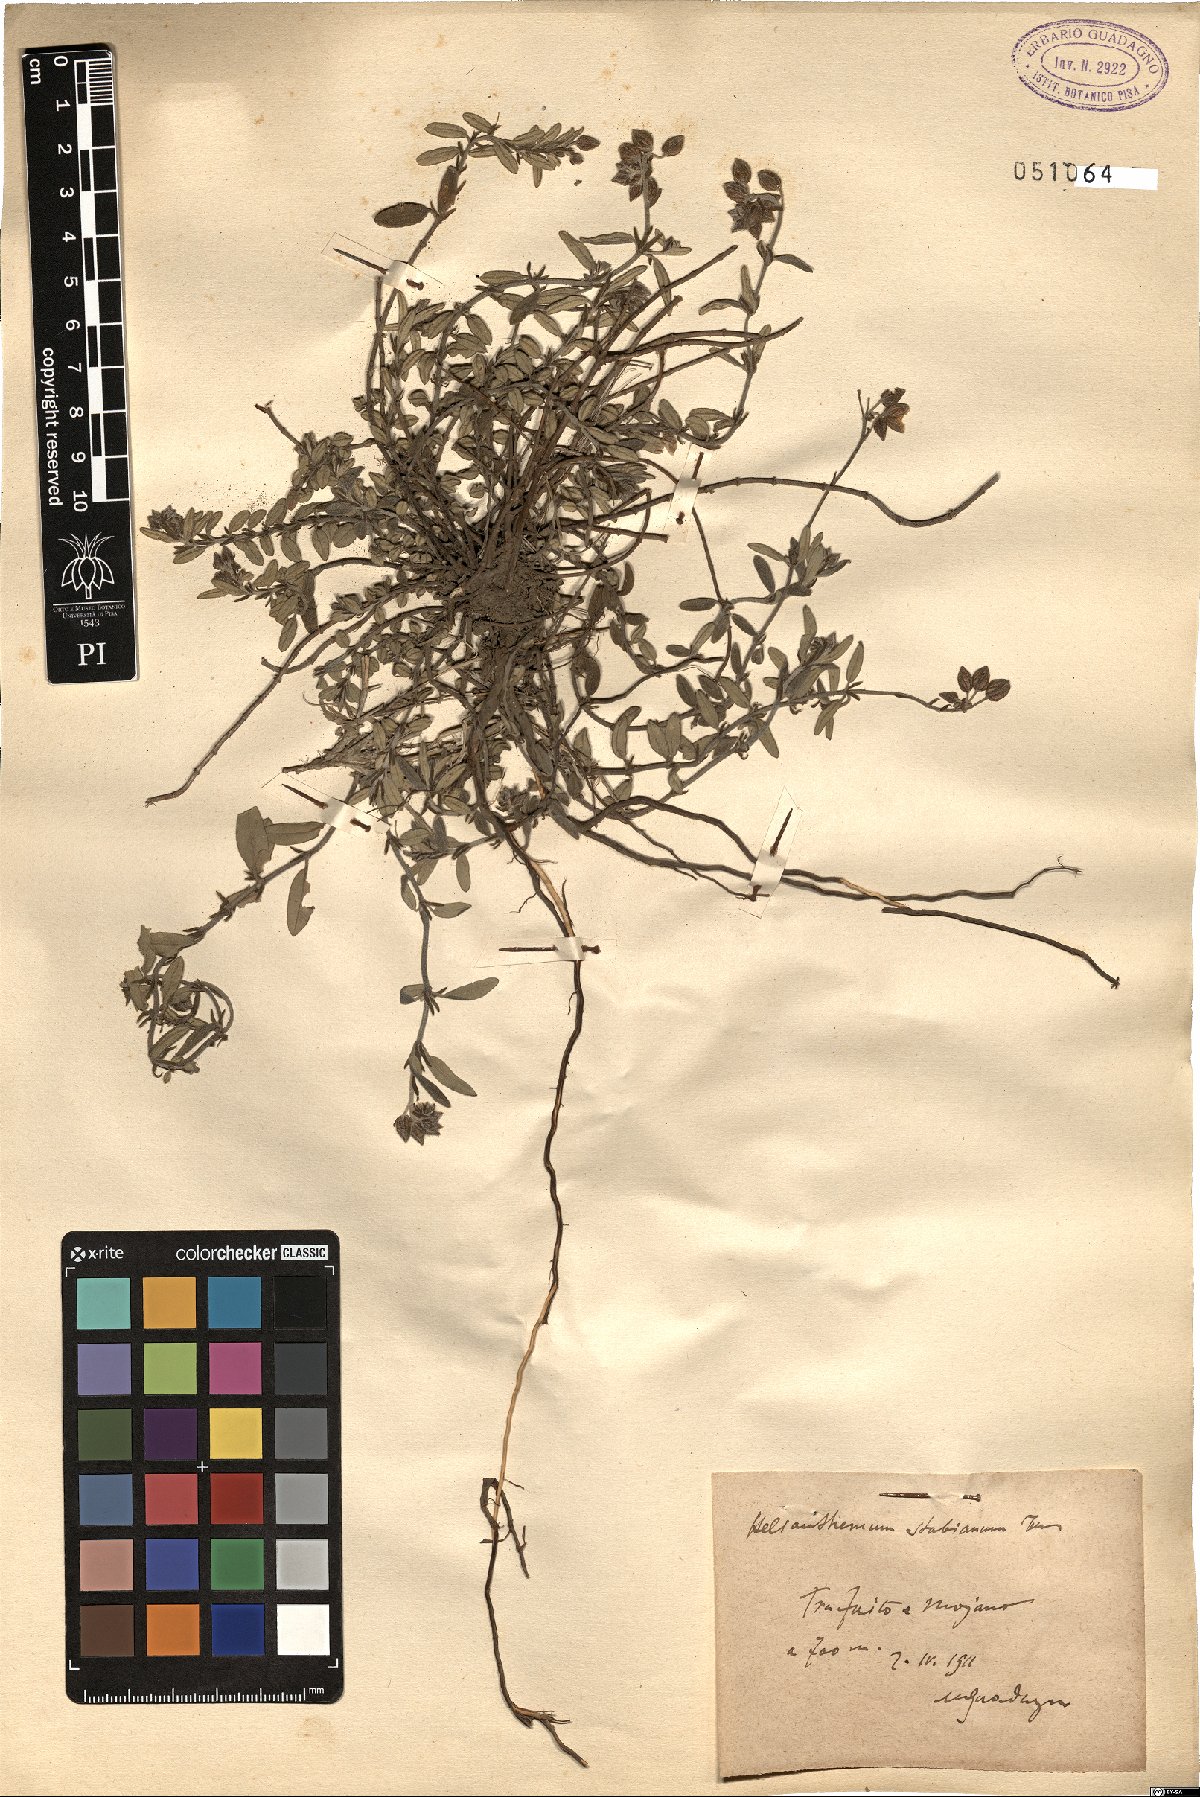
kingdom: Plantae
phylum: Tracheophyta
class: Magnoliopsida
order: Malvales
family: Cistaceae
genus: Helianthemum
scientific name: Helianthemum croceum
